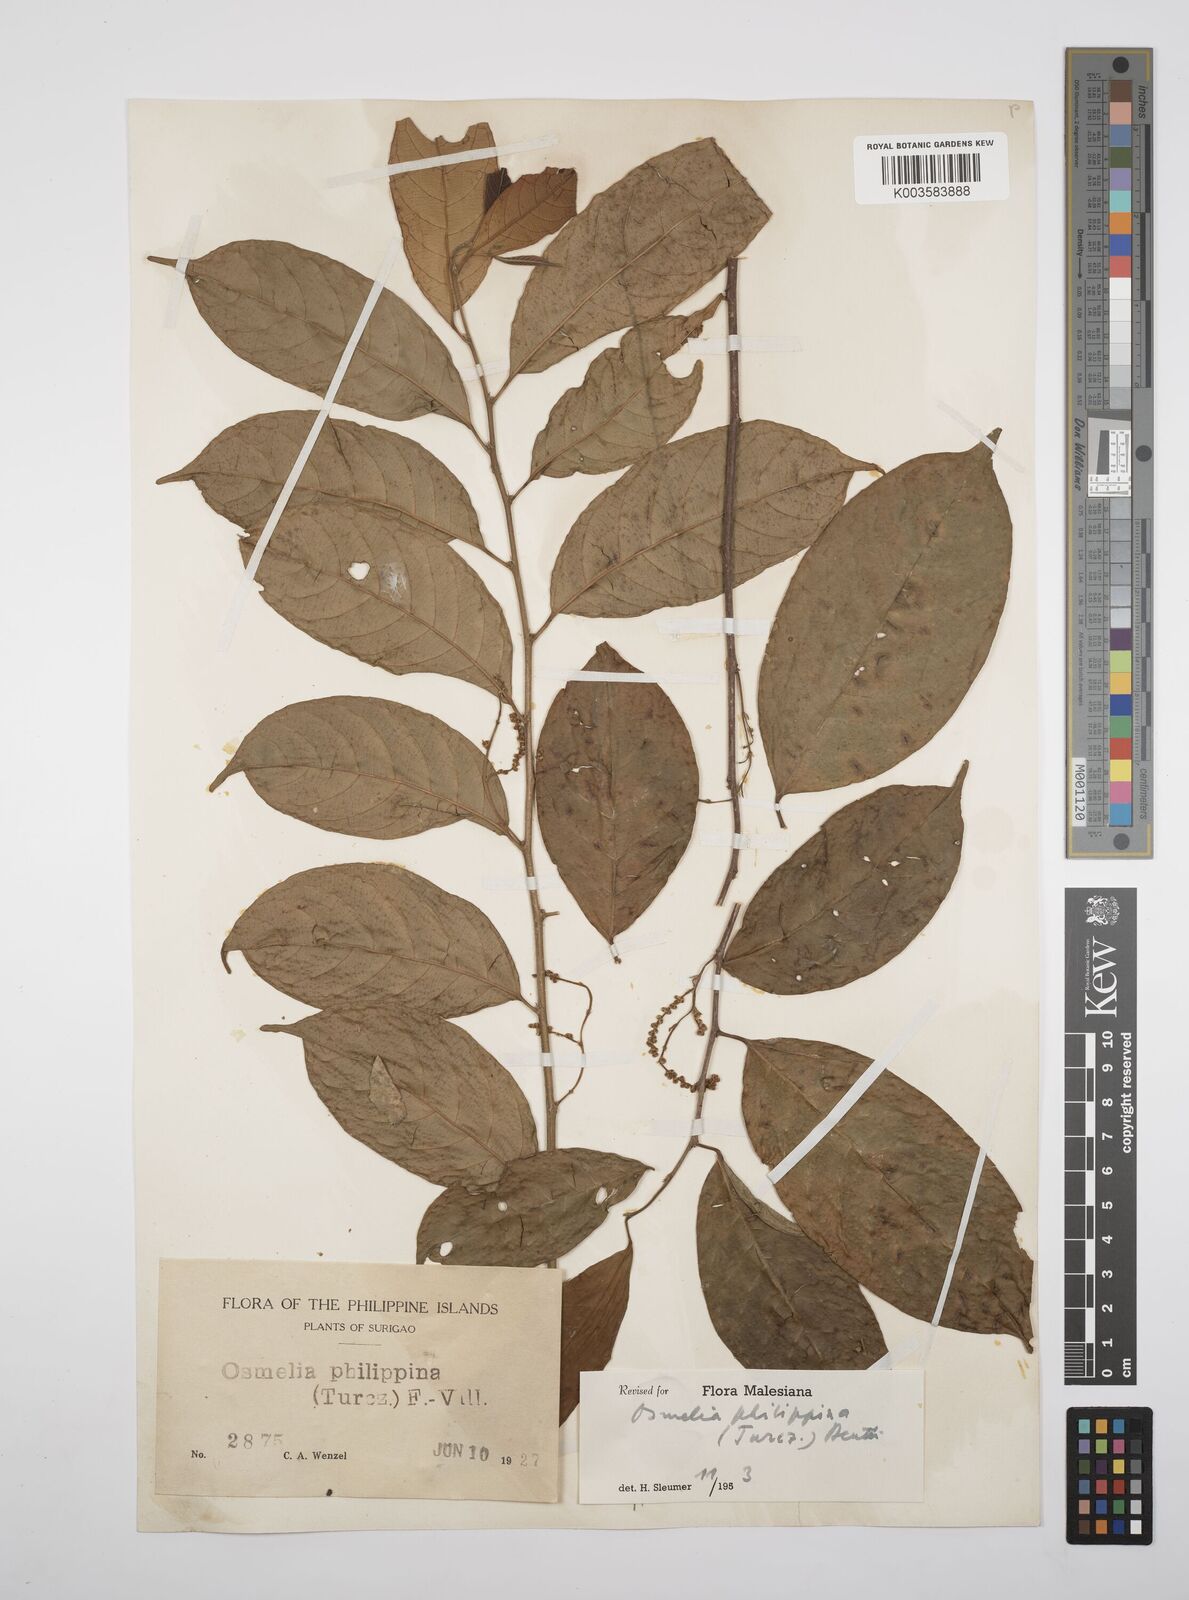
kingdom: Plantae
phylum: Tracheophyta
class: Magnoliopsida
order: Malpighiales
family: Salicaceae
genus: Osmelia
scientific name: Osmelia philippina
